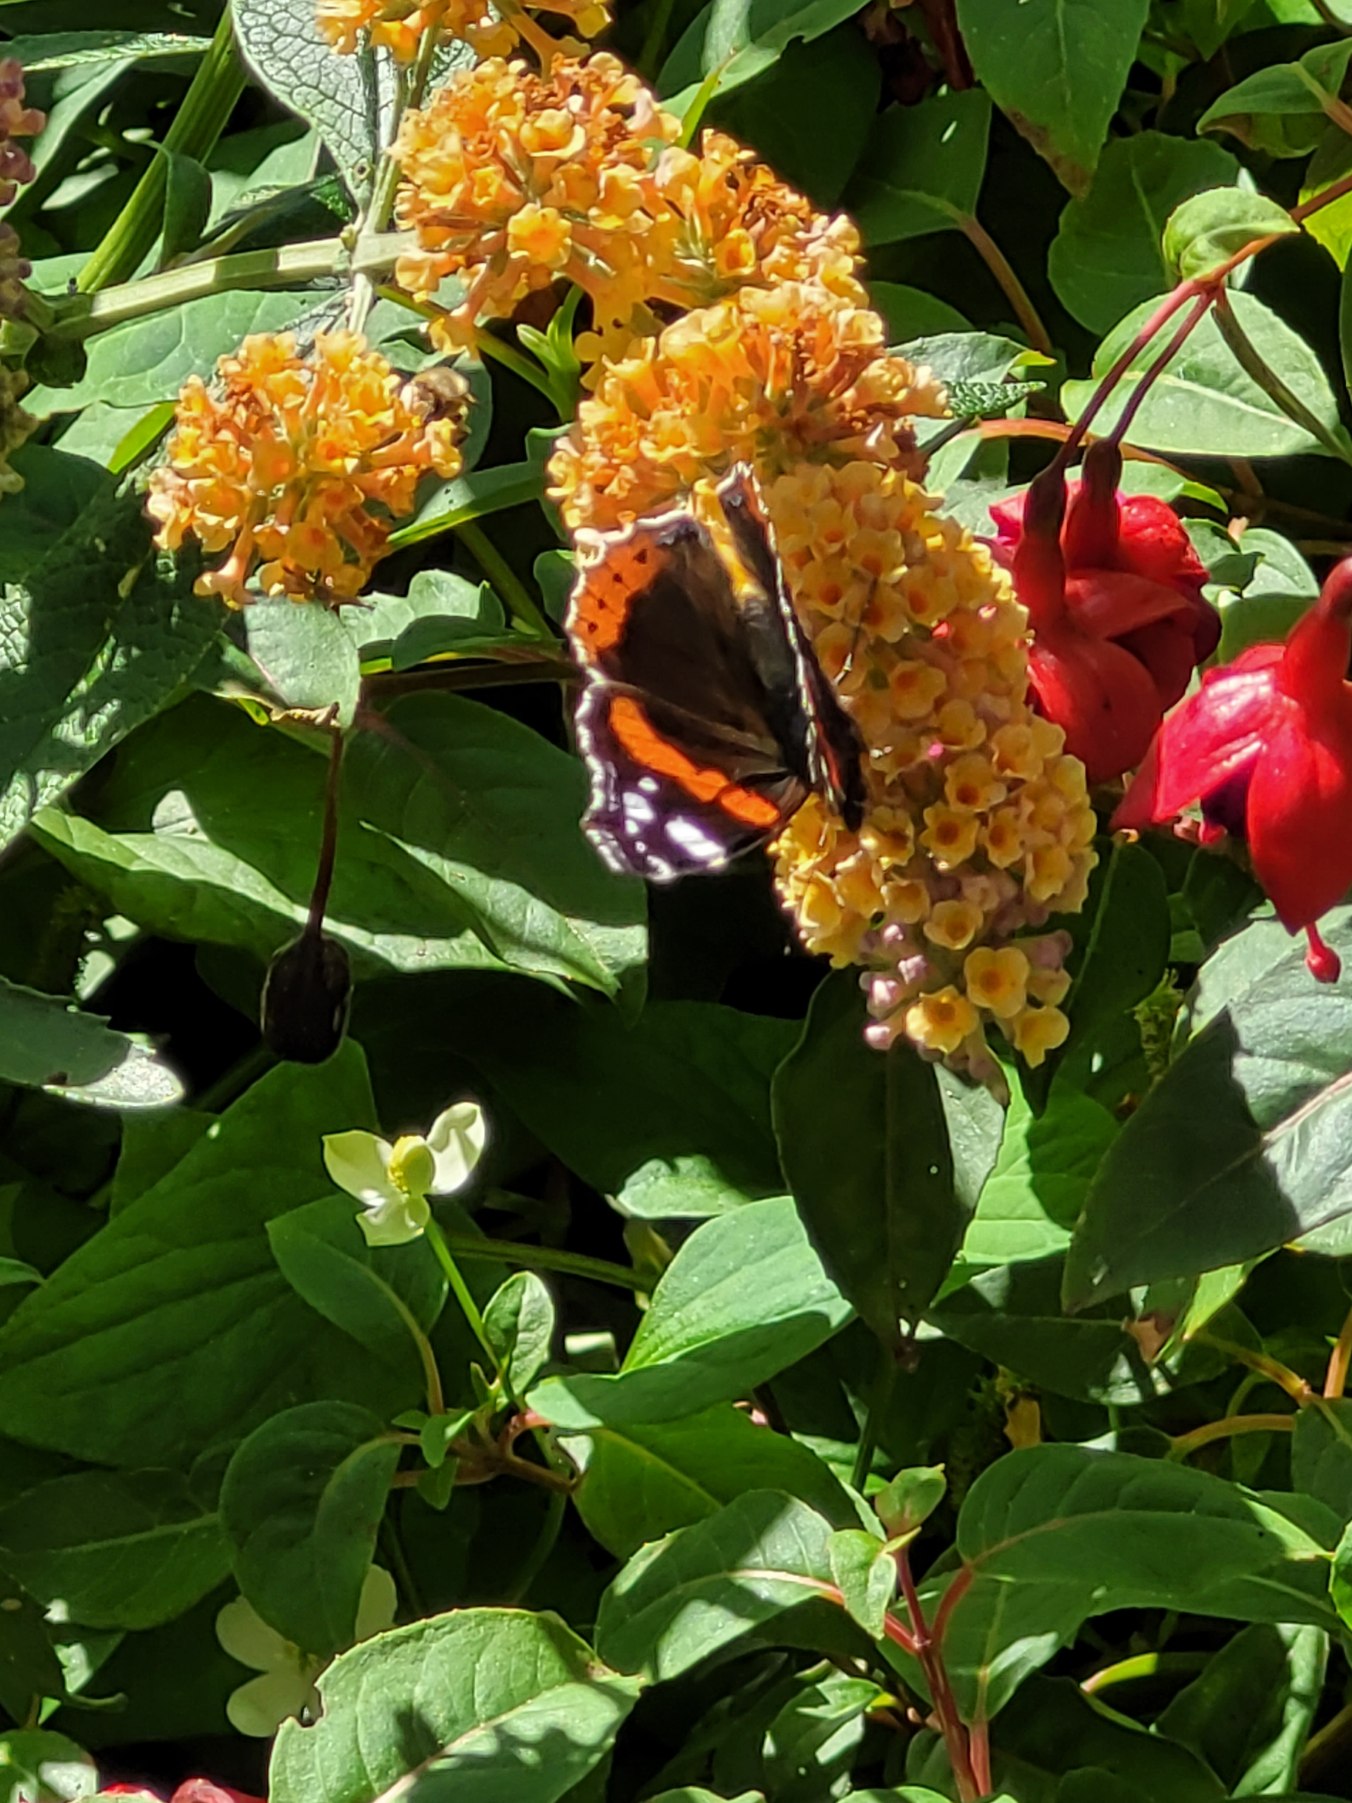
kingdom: Animalia
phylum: Arthropoda
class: Insecta
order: Lepidoptera
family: Nymphalidae
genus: Vanessa
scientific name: Vanessa atalanta
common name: Admiral
